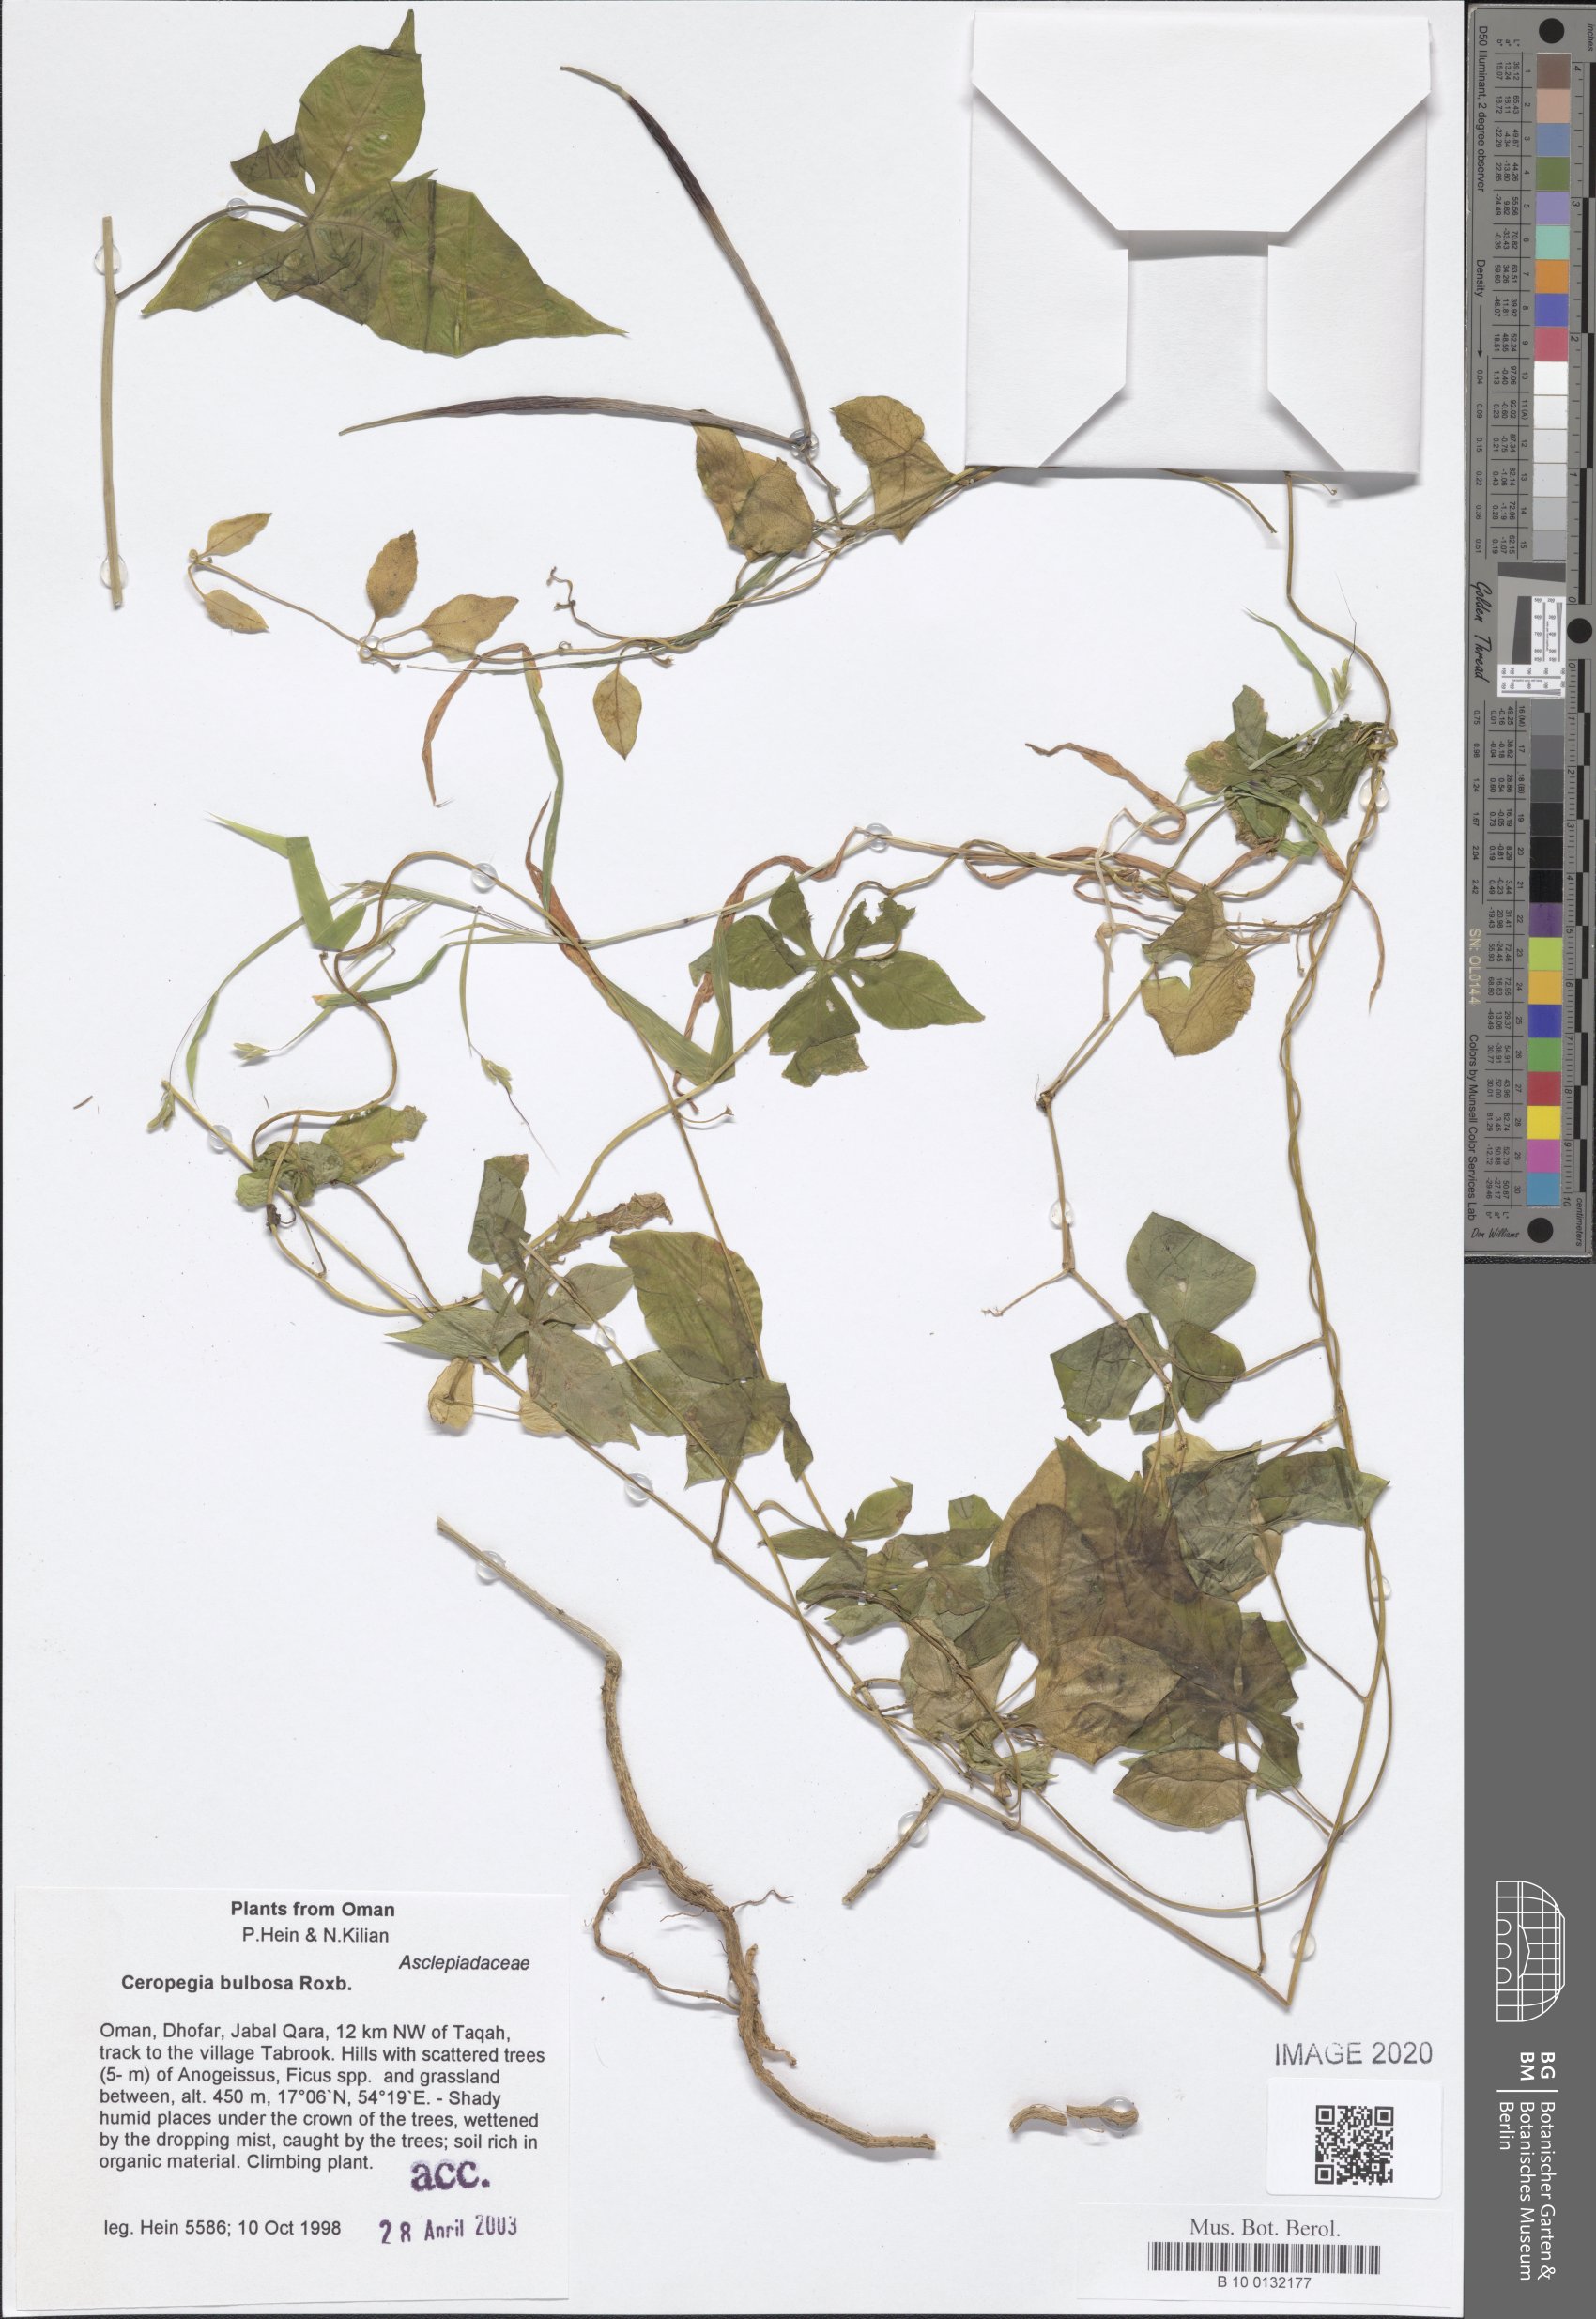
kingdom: Plantae
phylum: Tracheophyta
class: Magnoliopsida
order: Gentianales
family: Apocynaceae
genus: Ceropegia
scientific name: Ceropegia bulbosa
